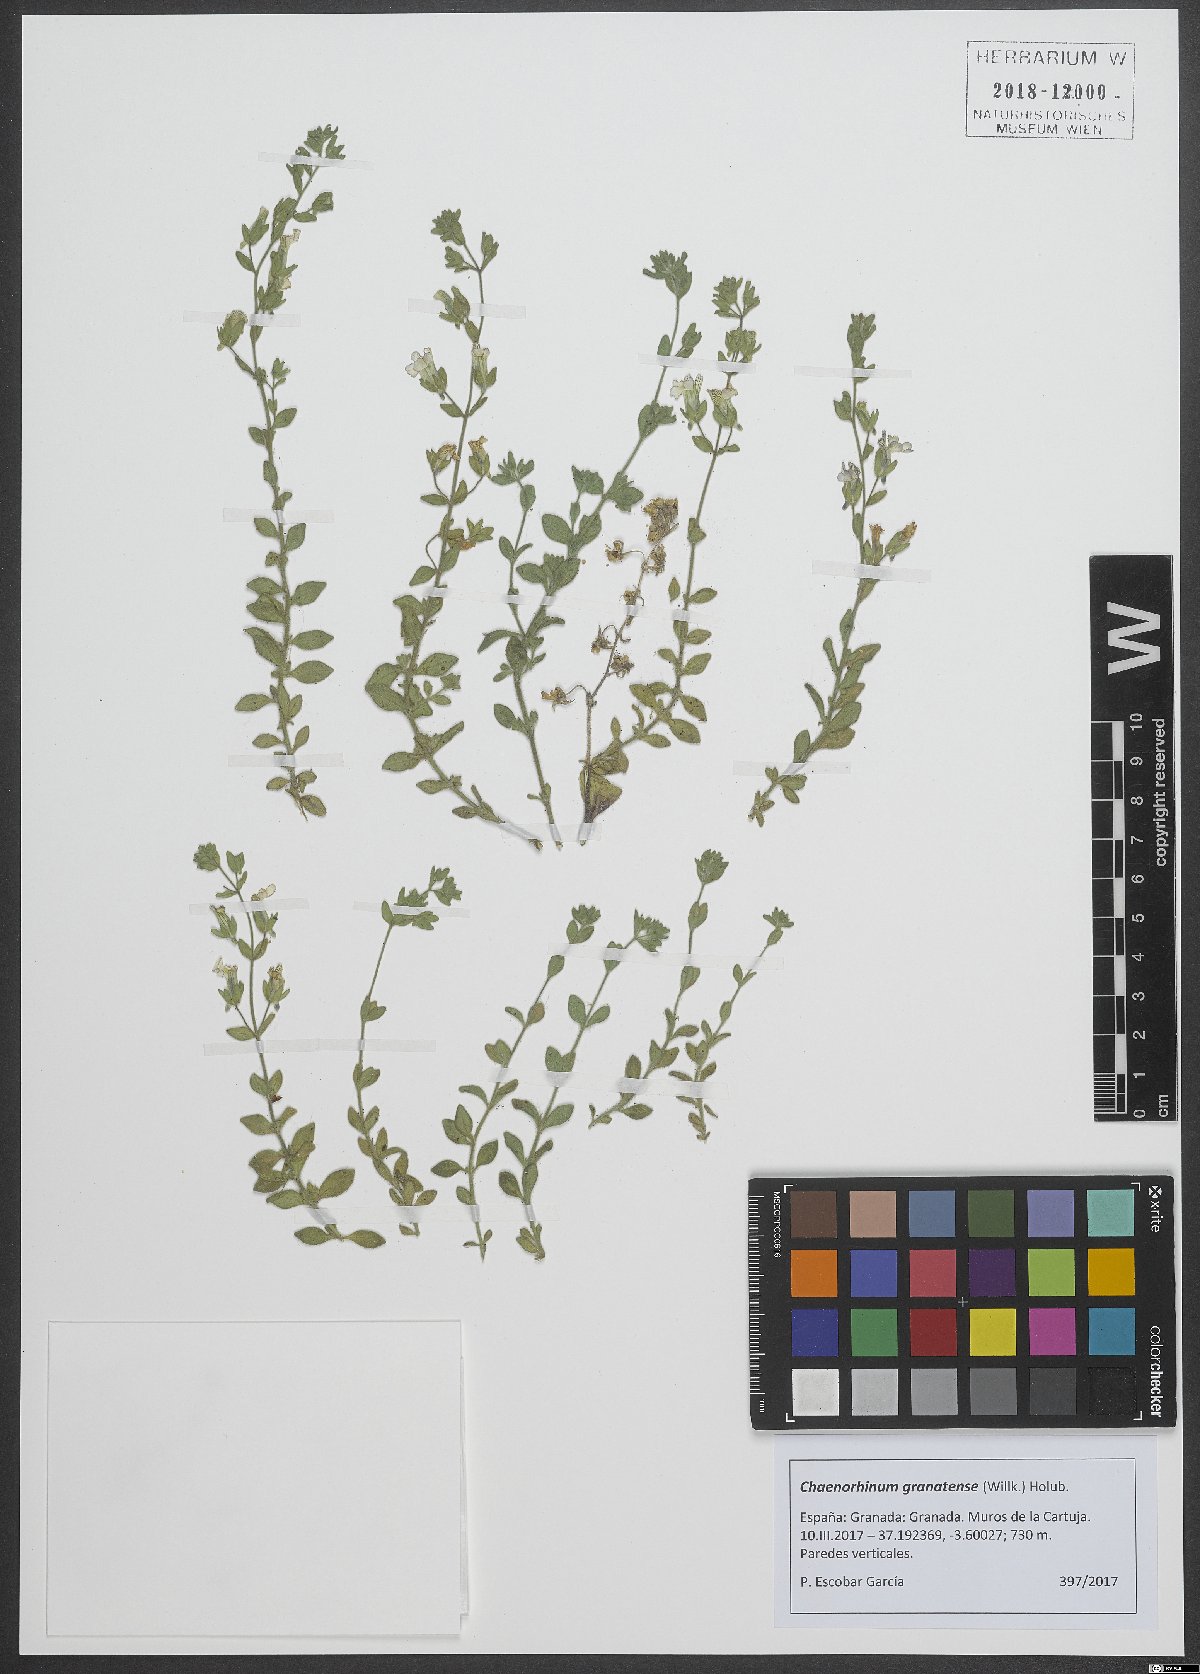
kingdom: Plantae
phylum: Tracheophyta
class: Magnoliopsida
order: Lamiales
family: Plantaginaceae
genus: Chaenorhinum
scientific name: Chaenorhinum villosum
